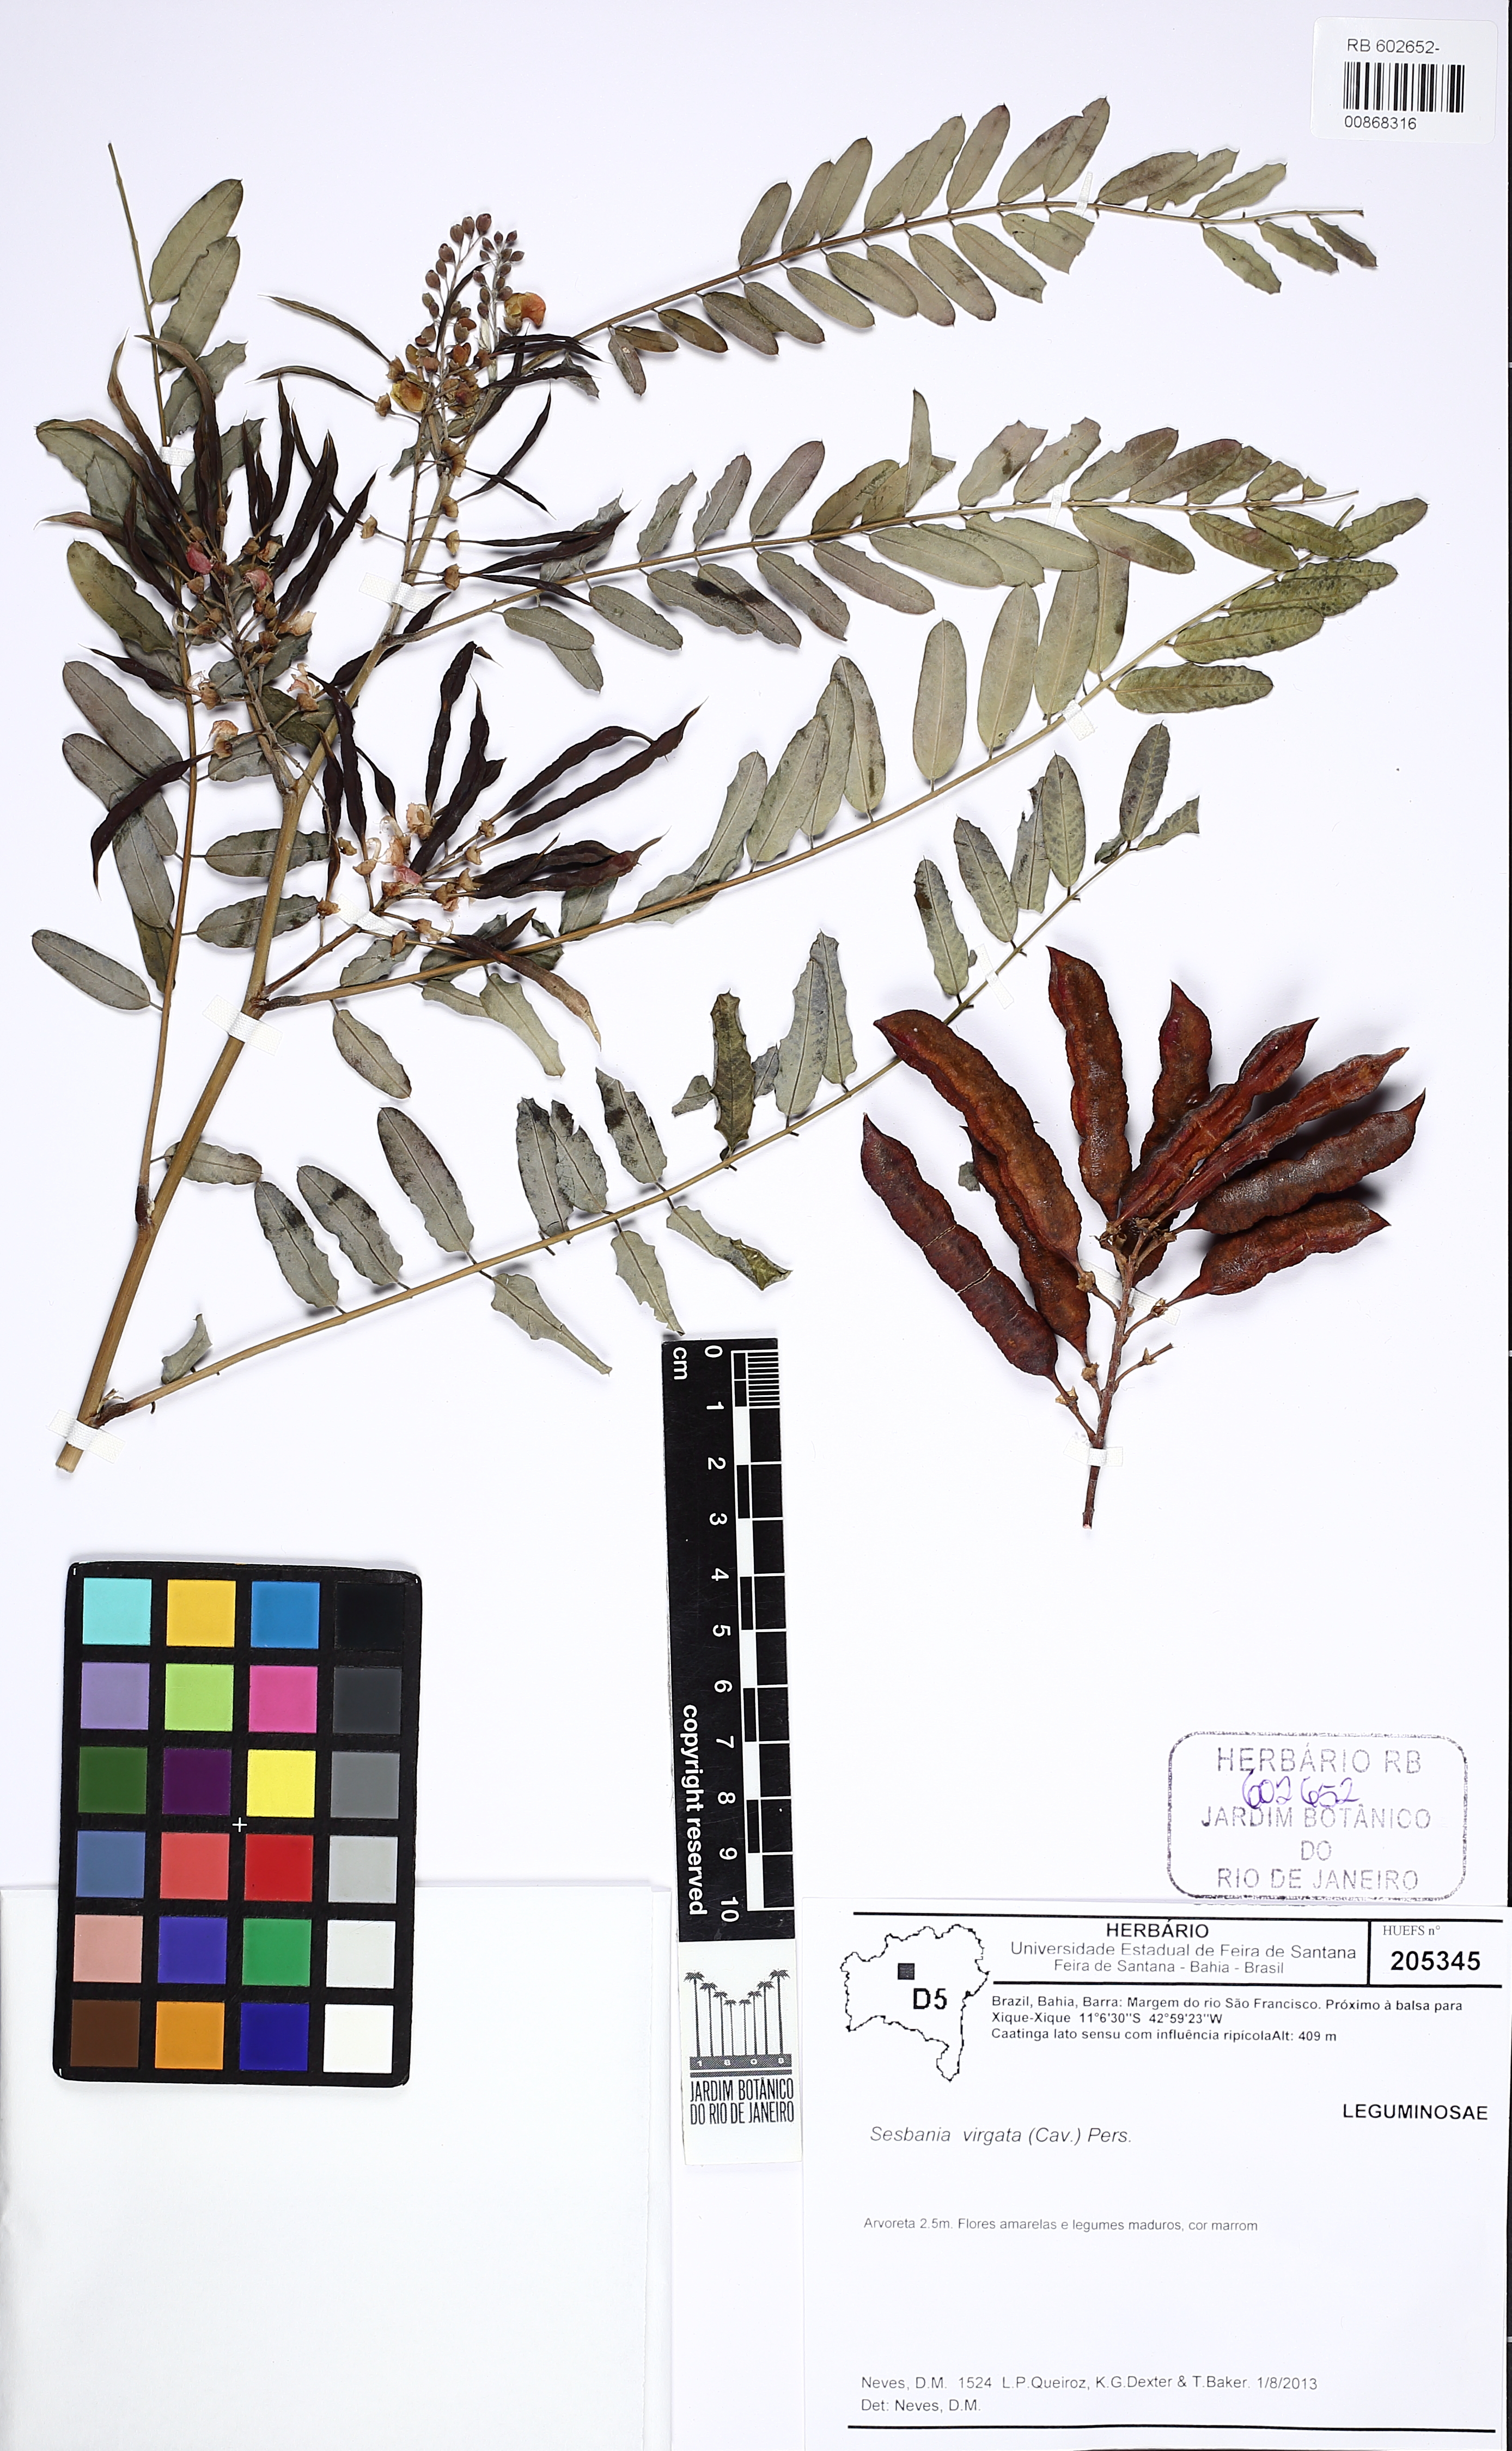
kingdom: Plantae
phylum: Tracheophyta
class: Magnoliopsida
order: Fabales
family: Fabaceae
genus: Sesbania
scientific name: Sesbania virgata
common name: Wand riverhemp
